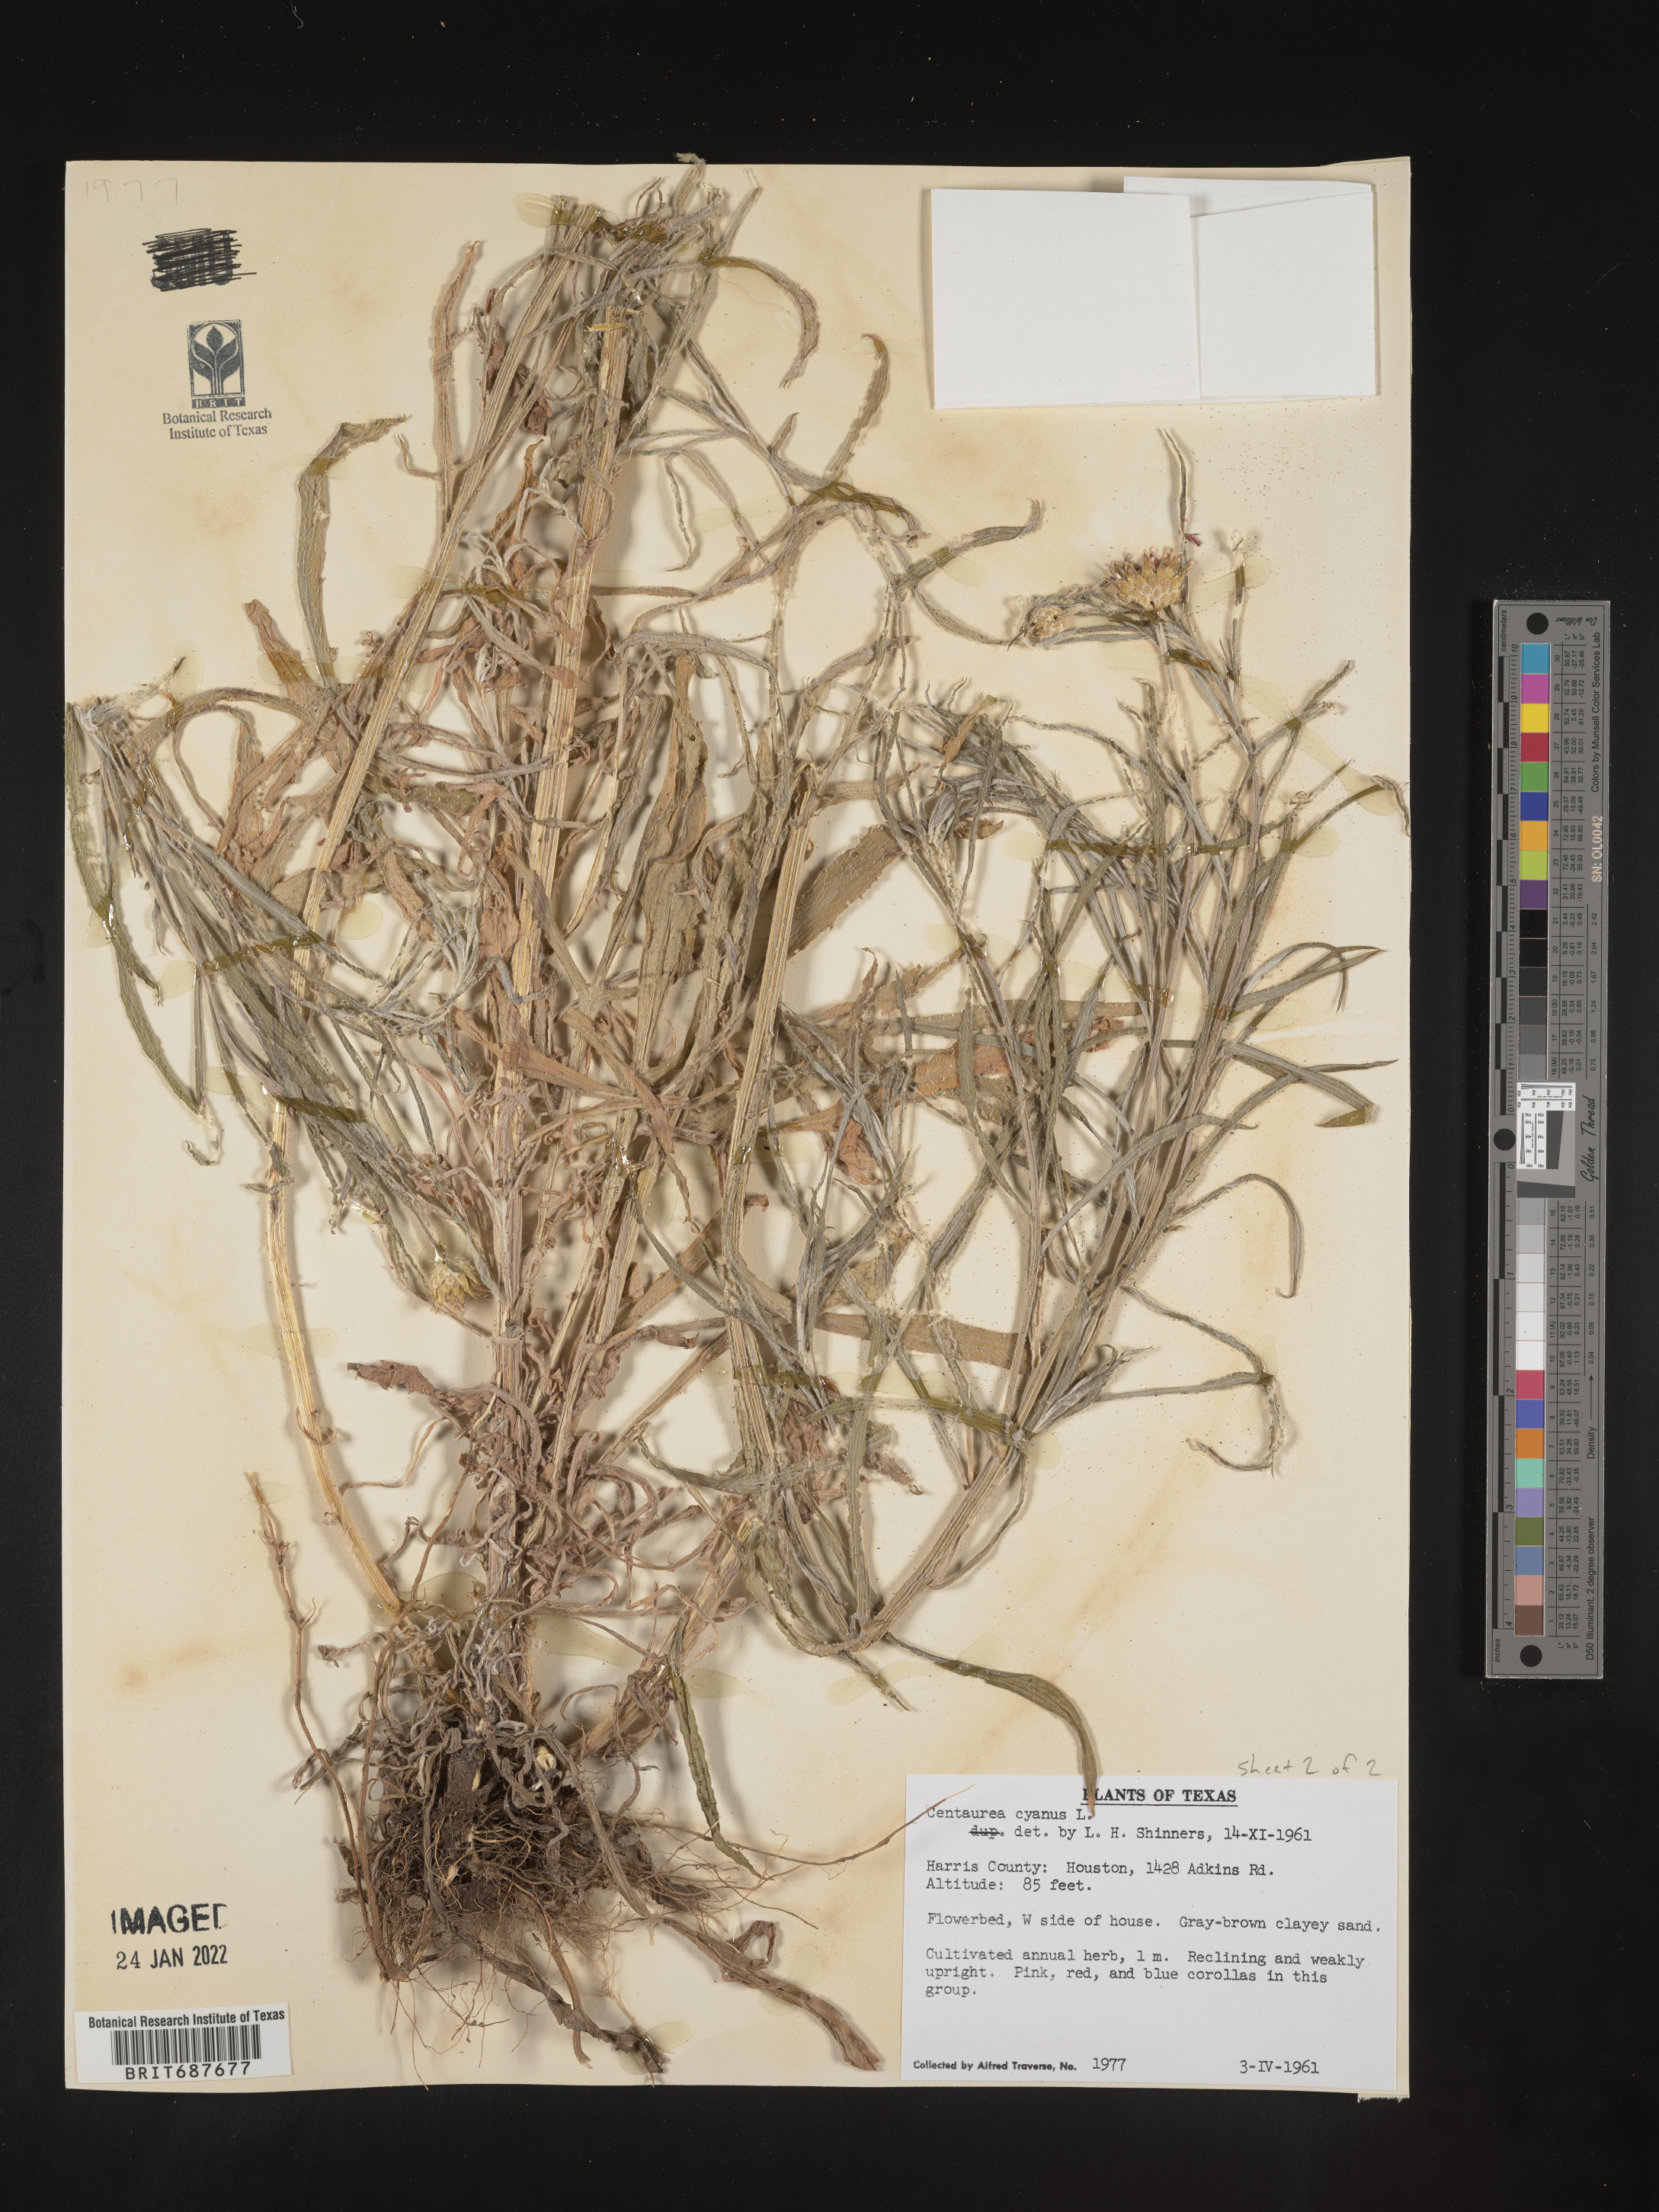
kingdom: Plantae
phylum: Tracheophyta
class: Magnoliopsida
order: Asterales
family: Asteraceae
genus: Centaurea
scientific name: Centaurea
